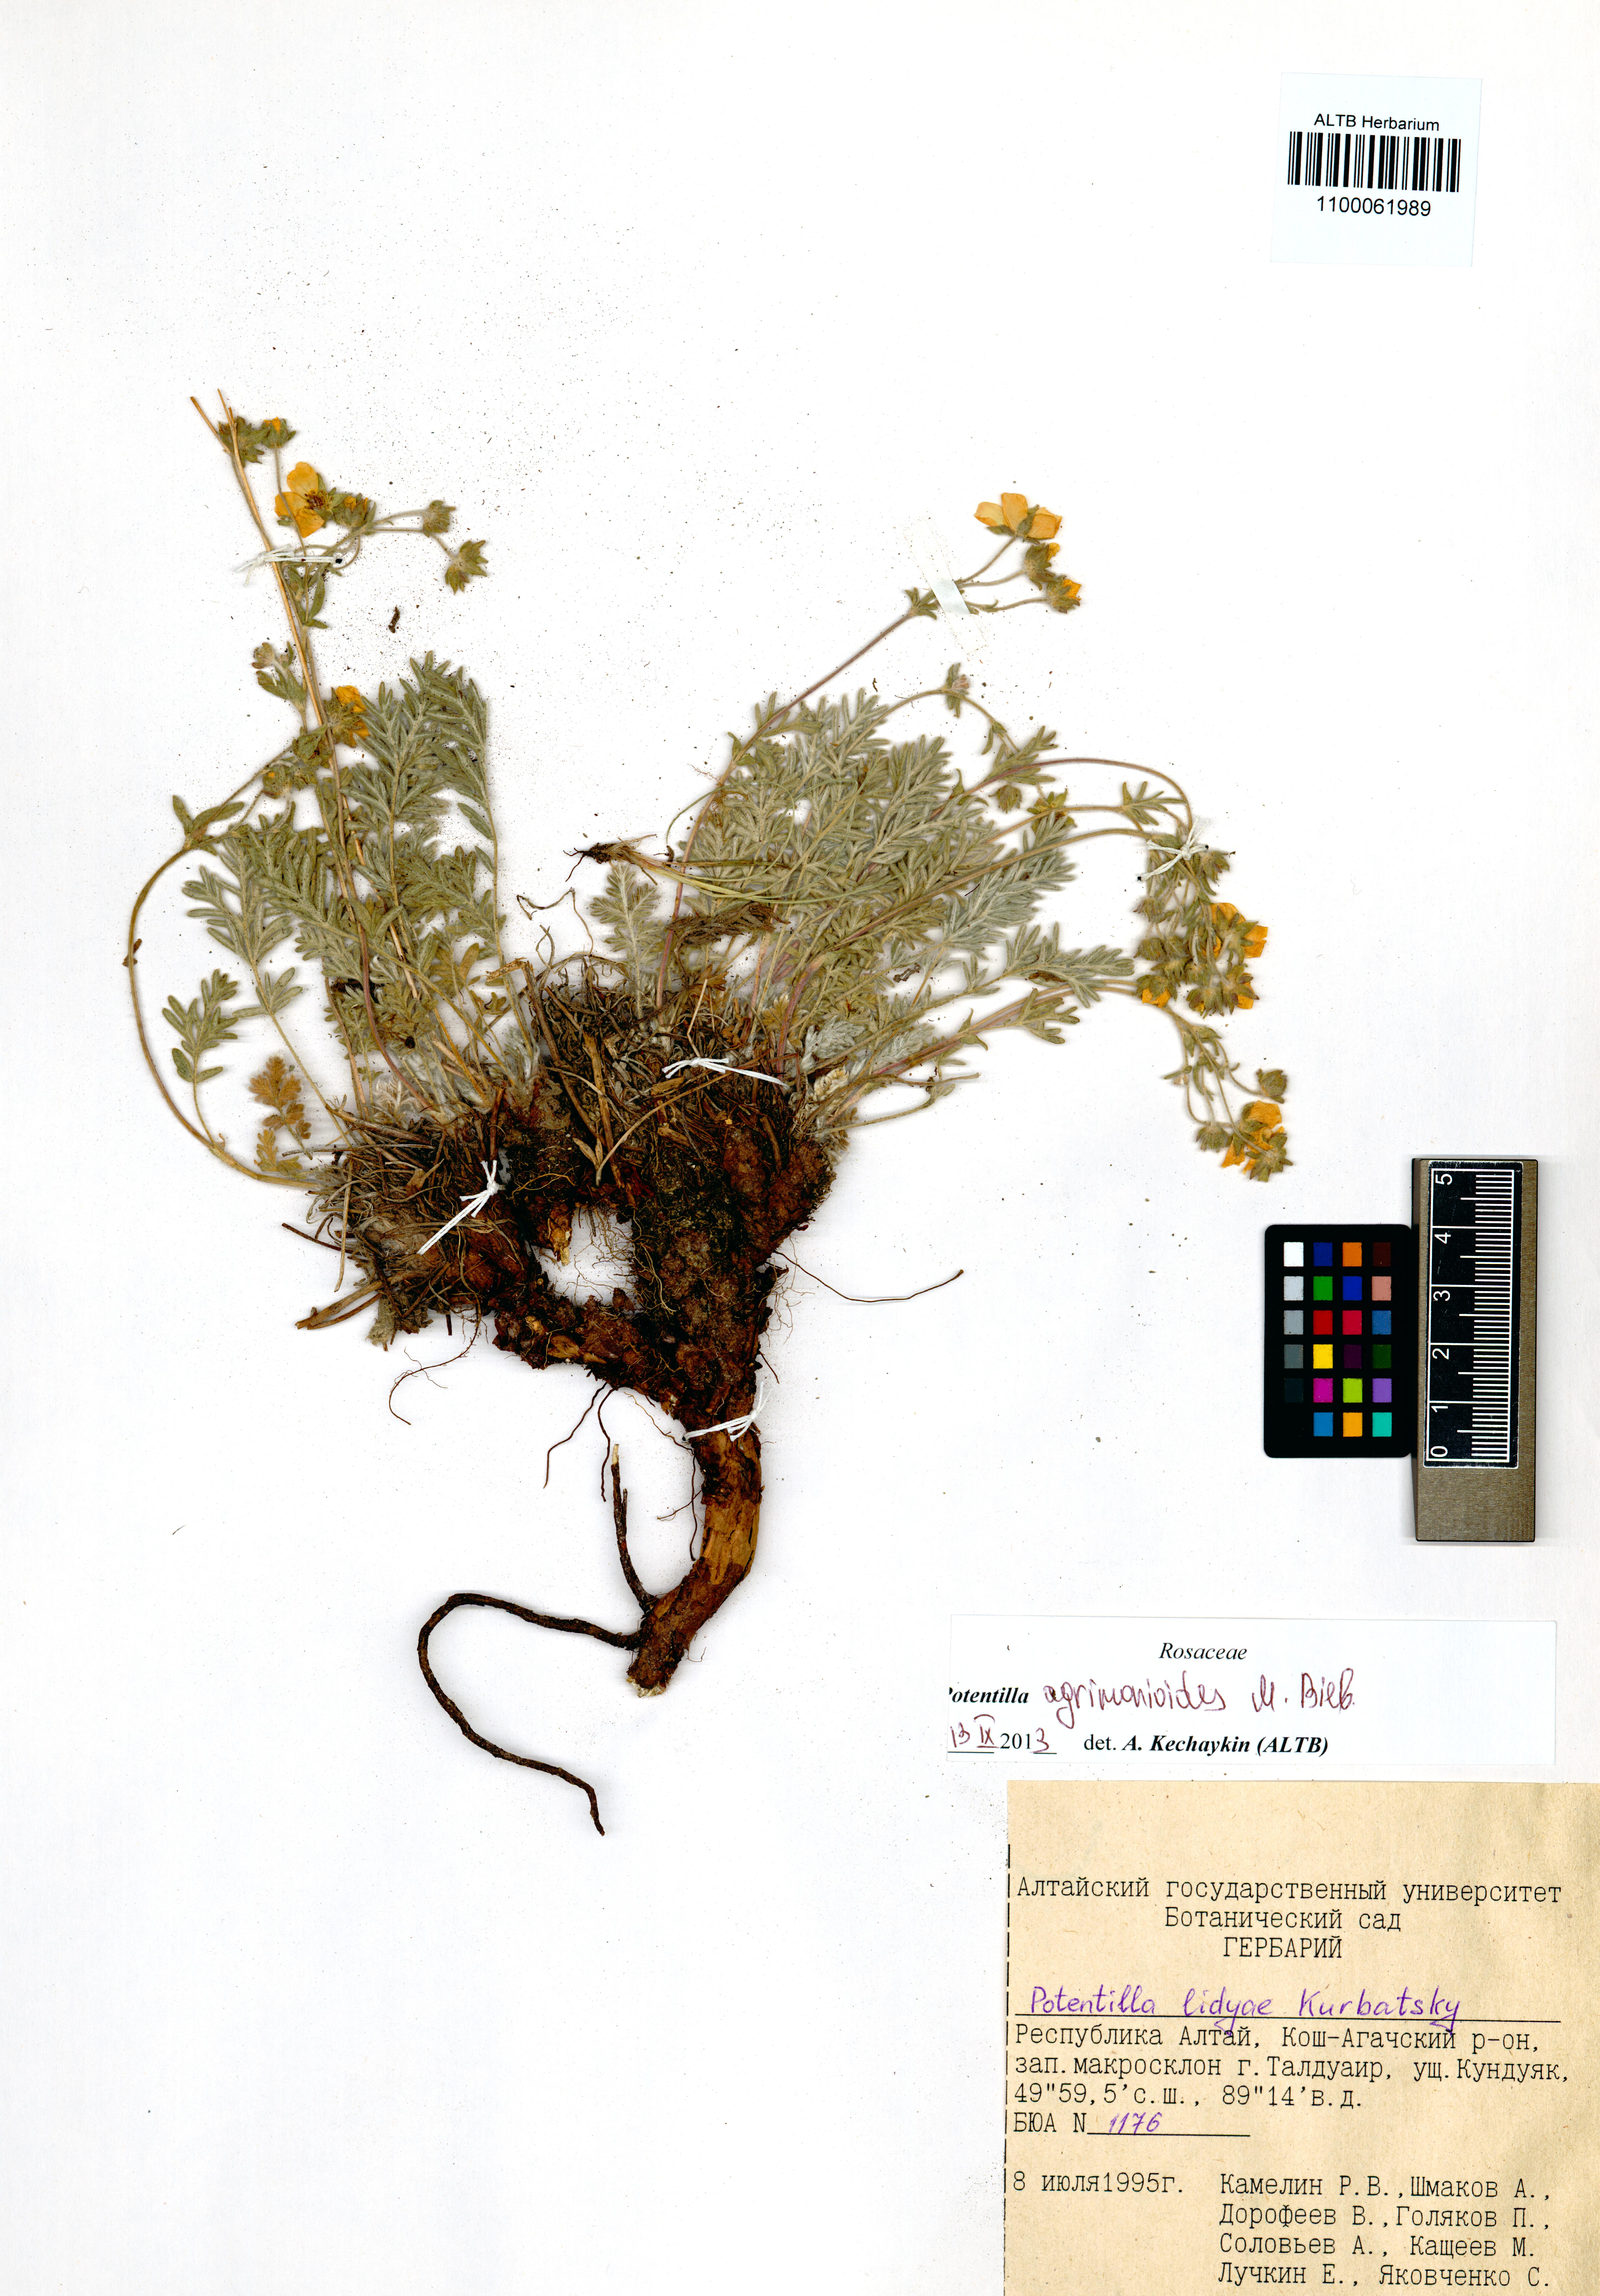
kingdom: Plantae
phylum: Tracheophyta
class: Magnoliopsida
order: Rosales
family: Rosaceae
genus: Potentilla
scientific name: Potentilla agrimonioides
